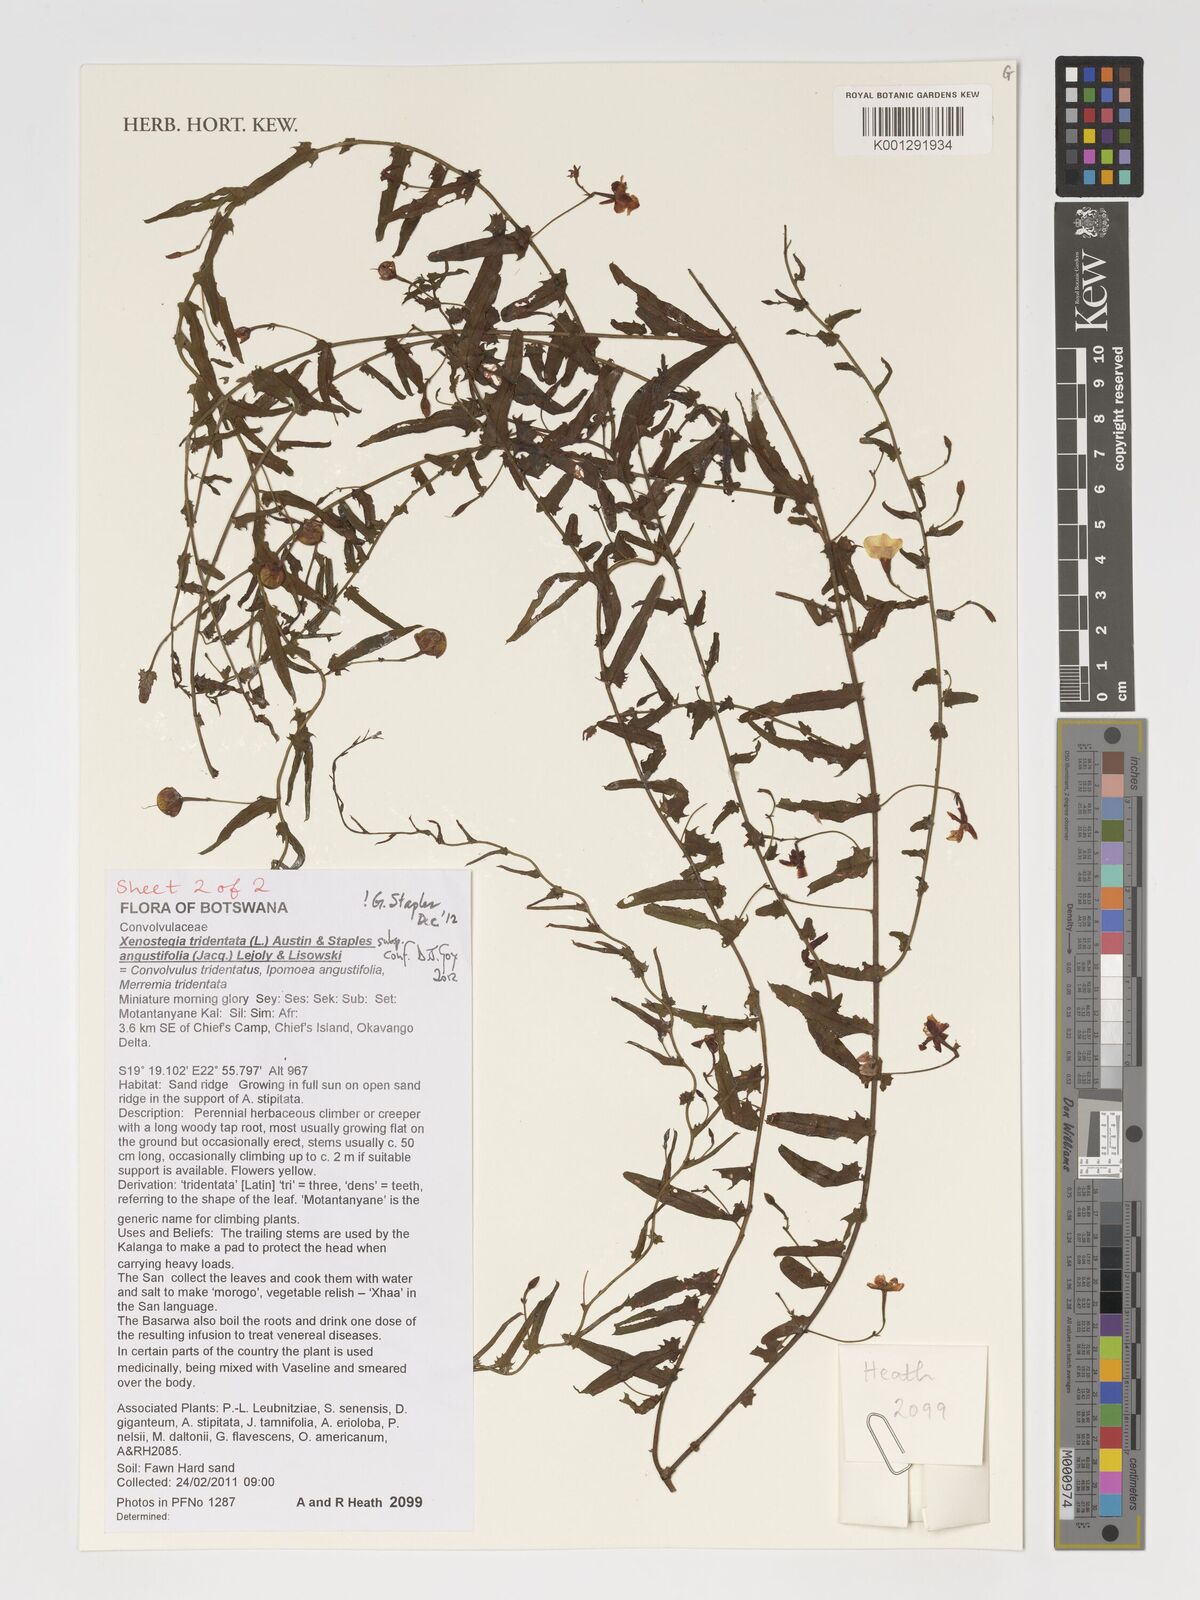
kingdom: Plantae
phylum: Tracheophyta
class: Magnoliopsida
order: Solanales
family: Convolvulaceae
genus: Xenostegia
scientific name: Xenostegia tridentata
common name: African morningvine
